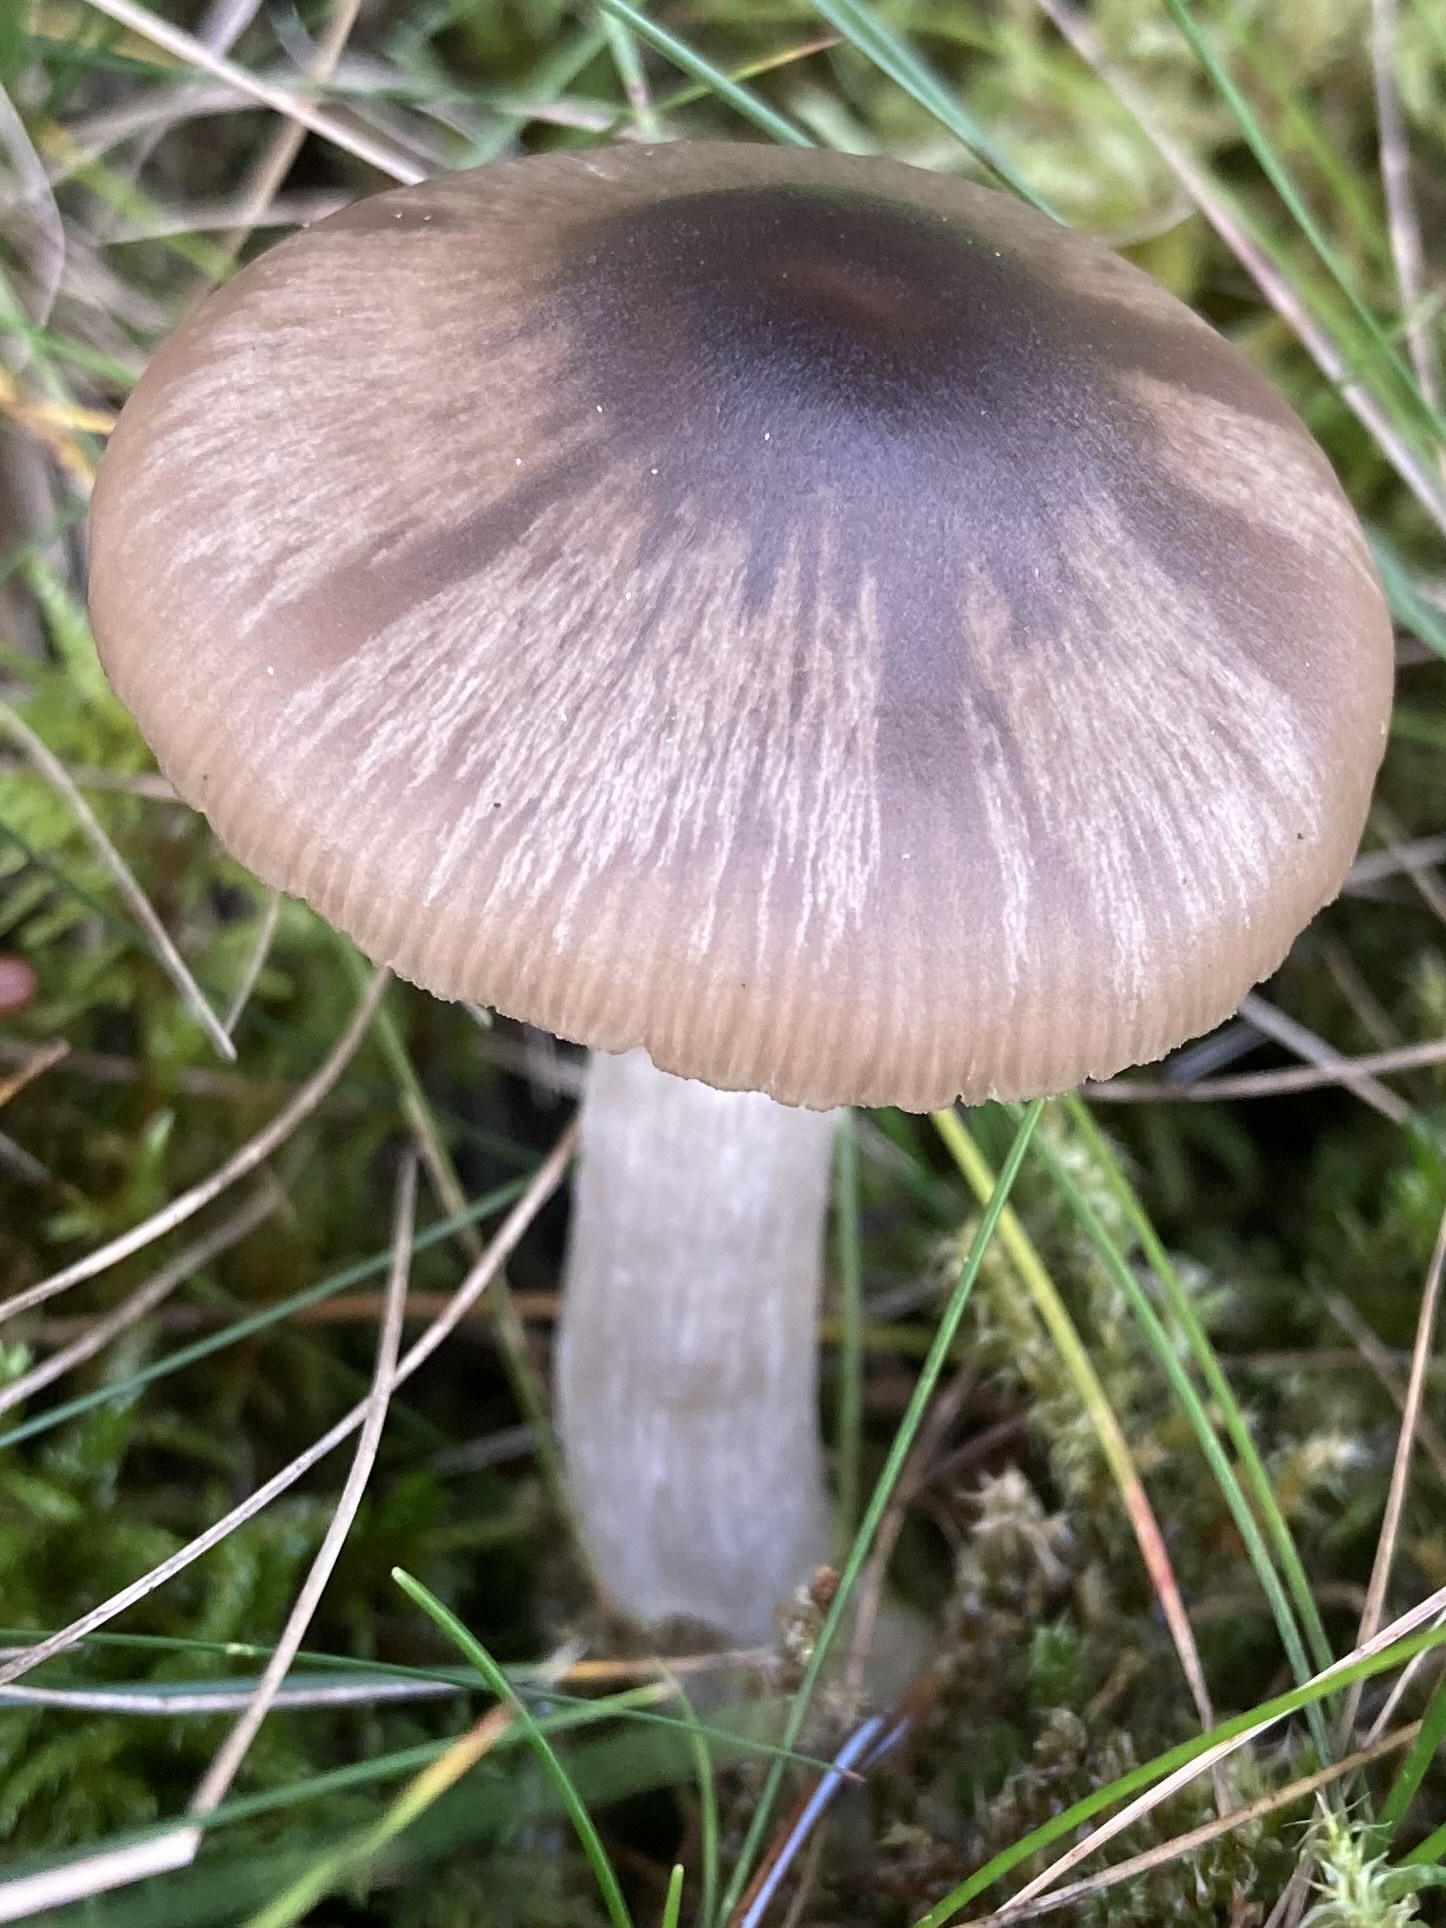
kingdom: Fungi
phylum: Basidiomycota
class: Agaricomycetes
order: Agaricales
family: Entolomataceae
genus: Entocybe
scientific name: Entocybe turbida
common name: plantage-rødblad
